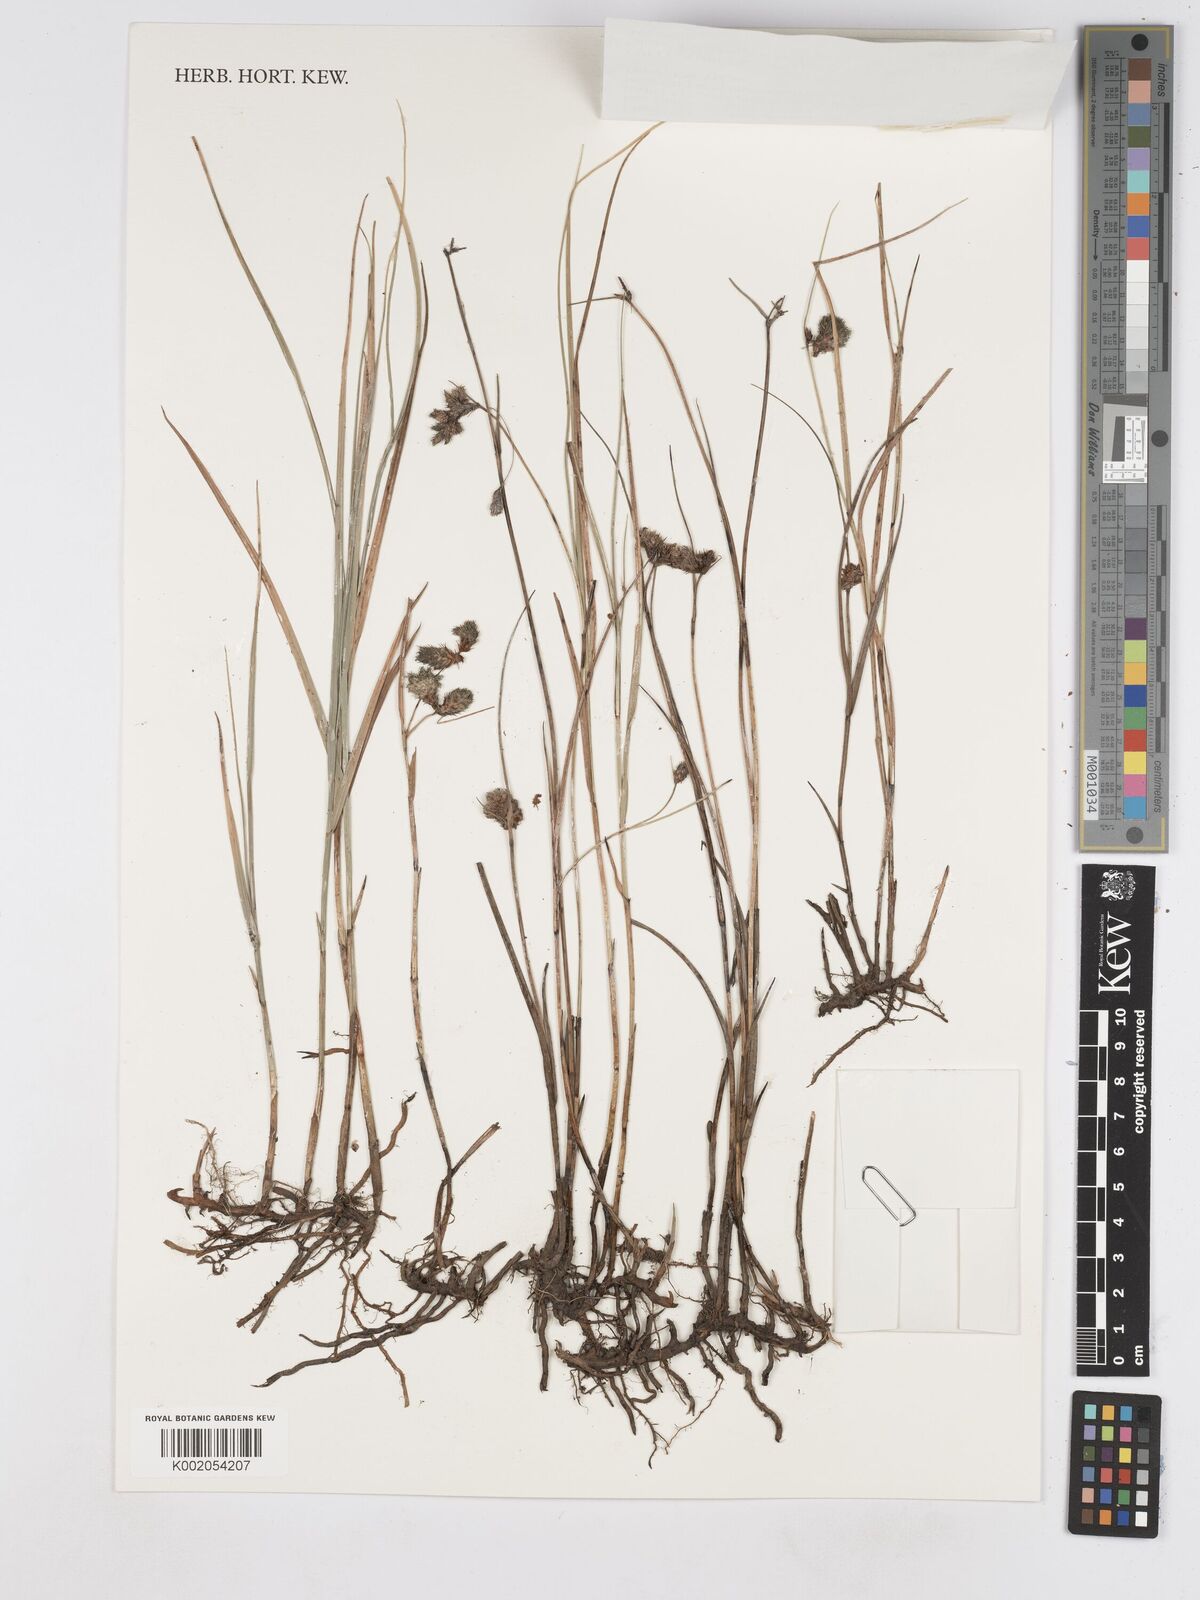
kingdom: Plantae
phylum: Tracheophyta
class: Liliopsida
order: Poales
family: Cyperaceae
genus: Fuirena
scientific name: Fuirena welwitschii
